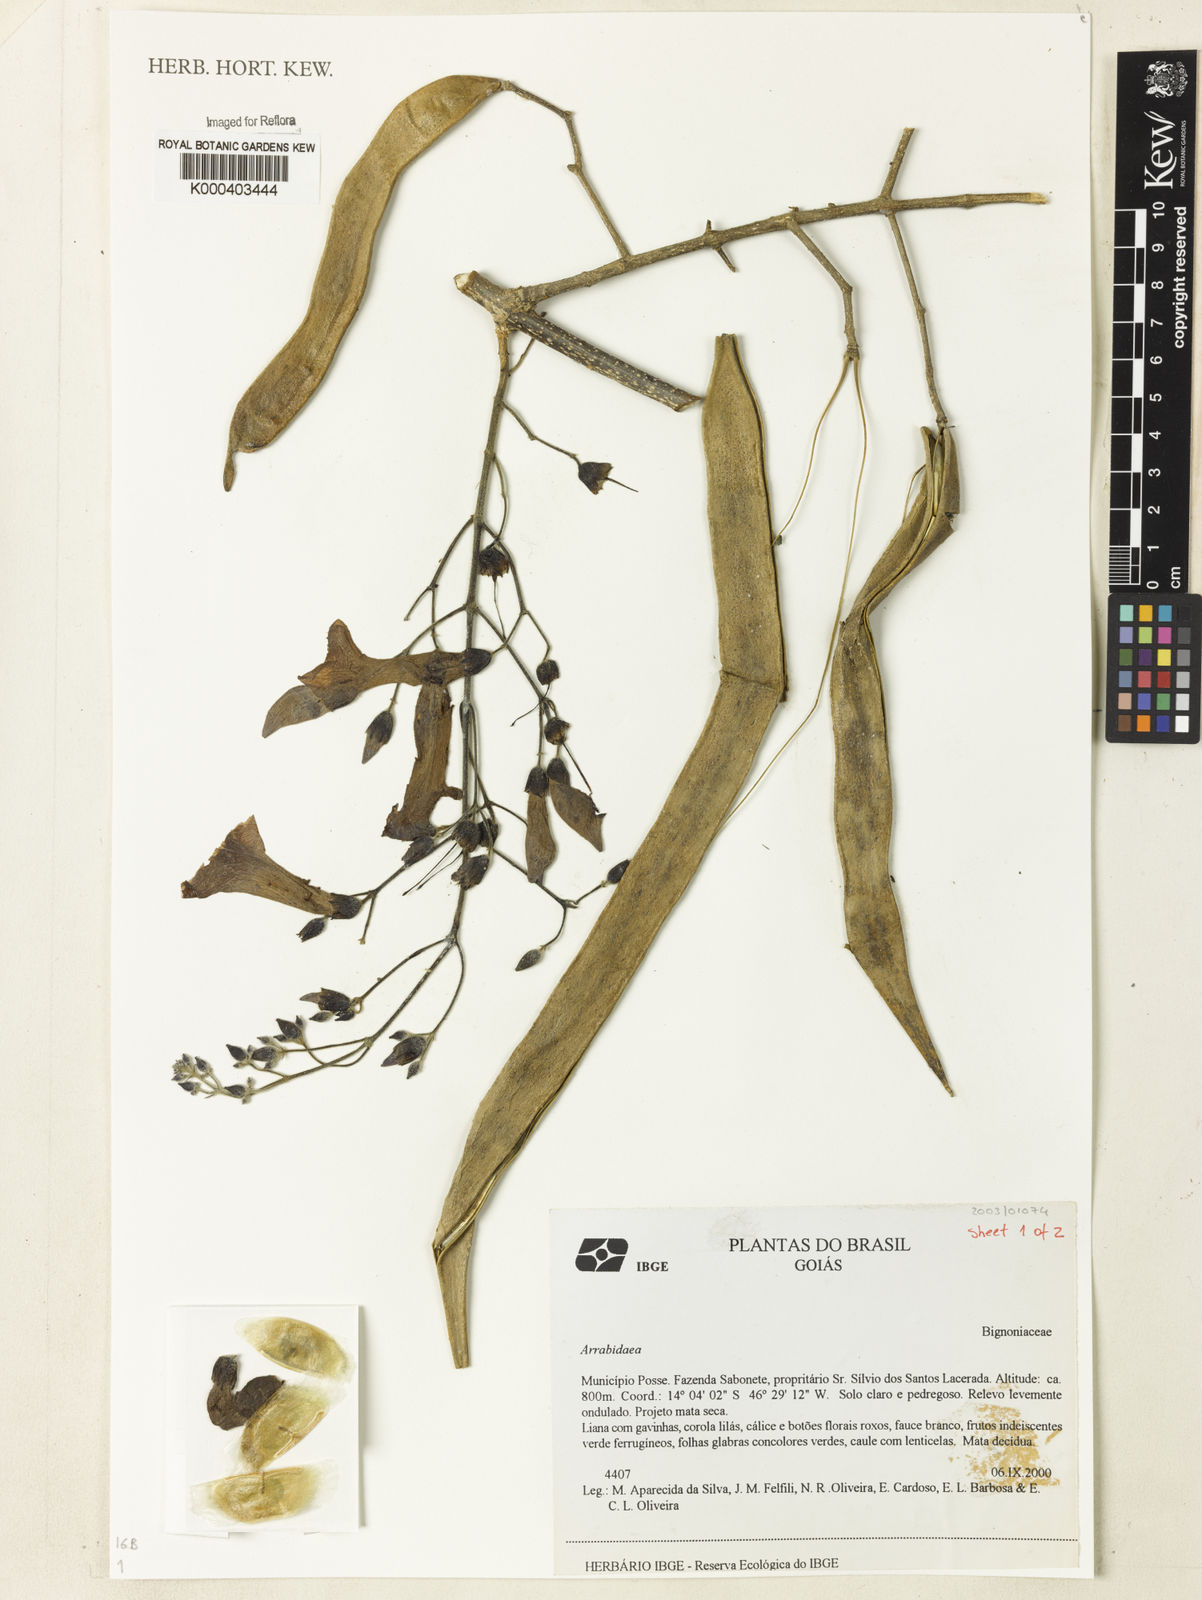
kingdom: Plantae
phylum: Tracheophyta
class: Magnoliopsida
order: Rosales
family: Rhamnaceae
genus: Arrabidaea
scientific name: Arrabidaea
